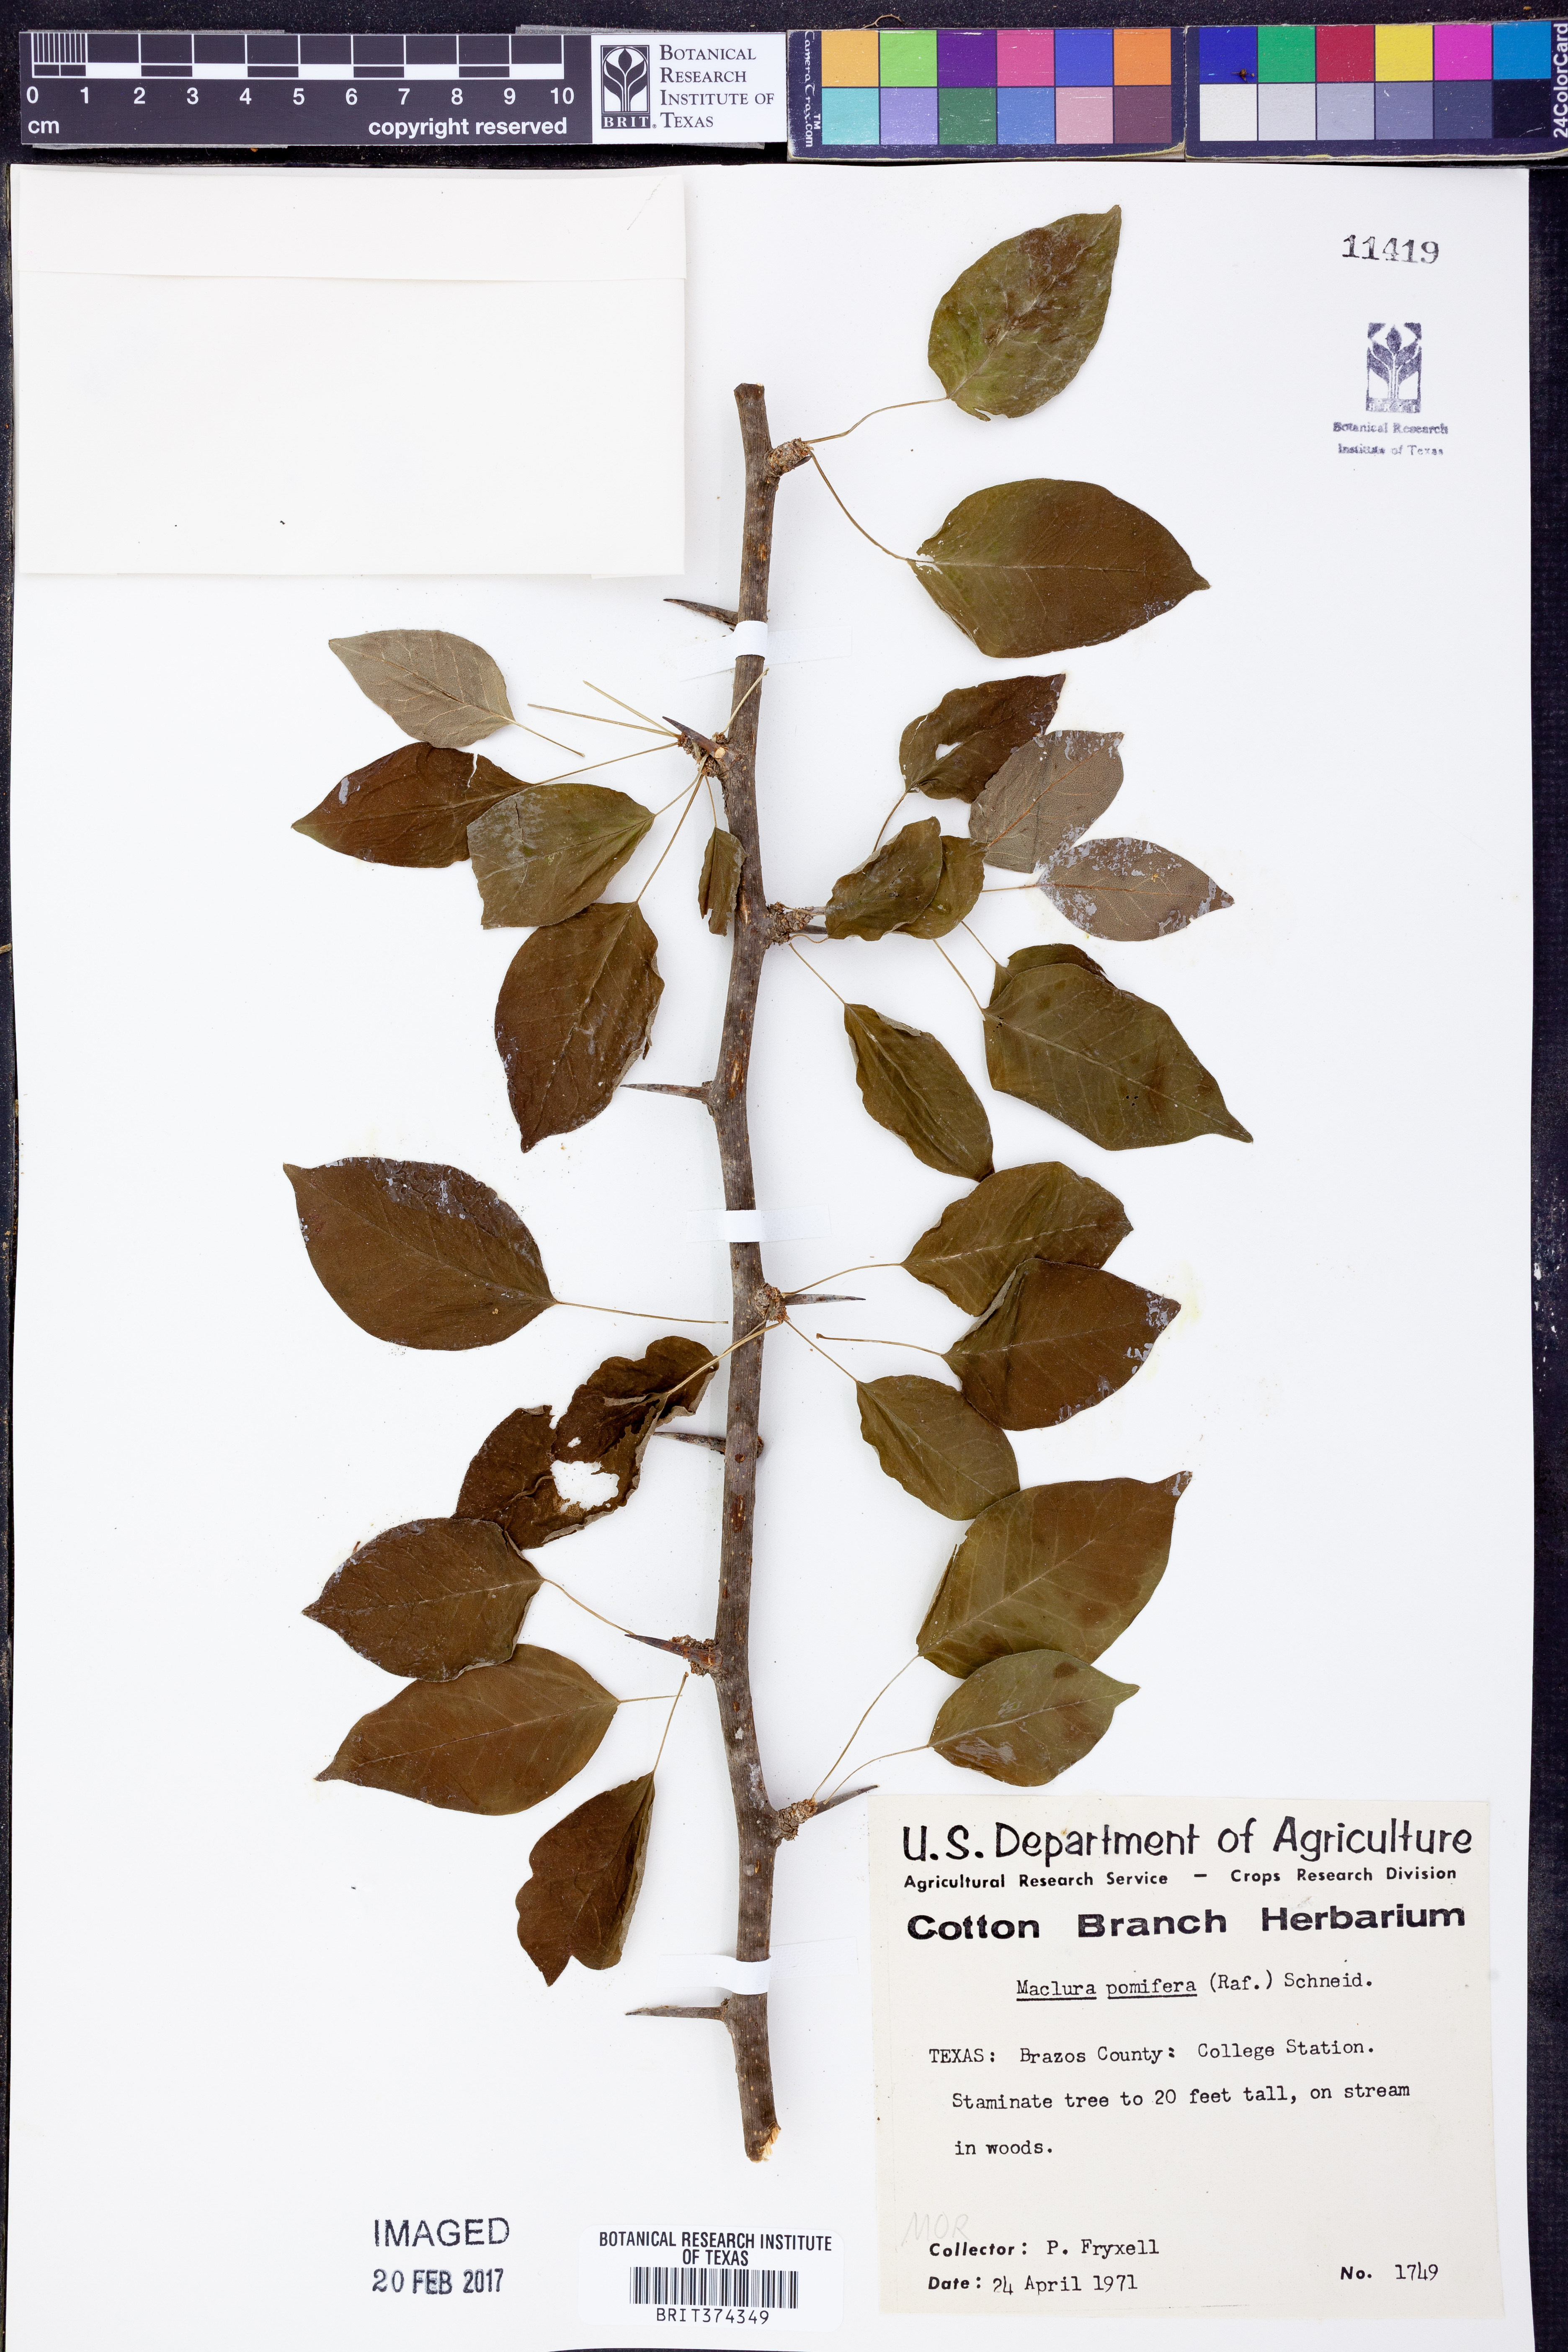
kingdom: Plantae
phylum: Tracheophyta
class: Magnoliopsida
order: Rosales
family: Moraceae
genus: Maclura
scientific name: Maclura pomifera
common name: Osage-orange
